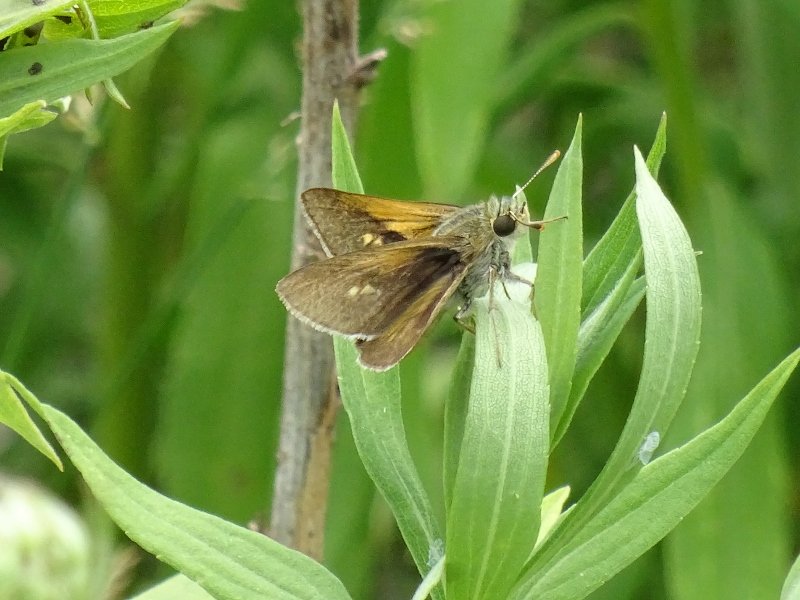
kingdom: Animalia
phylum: Arthropoda
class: Insecta
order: Lepidoptera
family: Hesperiidae
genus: Polites
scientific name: Polites themistocles
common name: Tawny-edged Skipper
